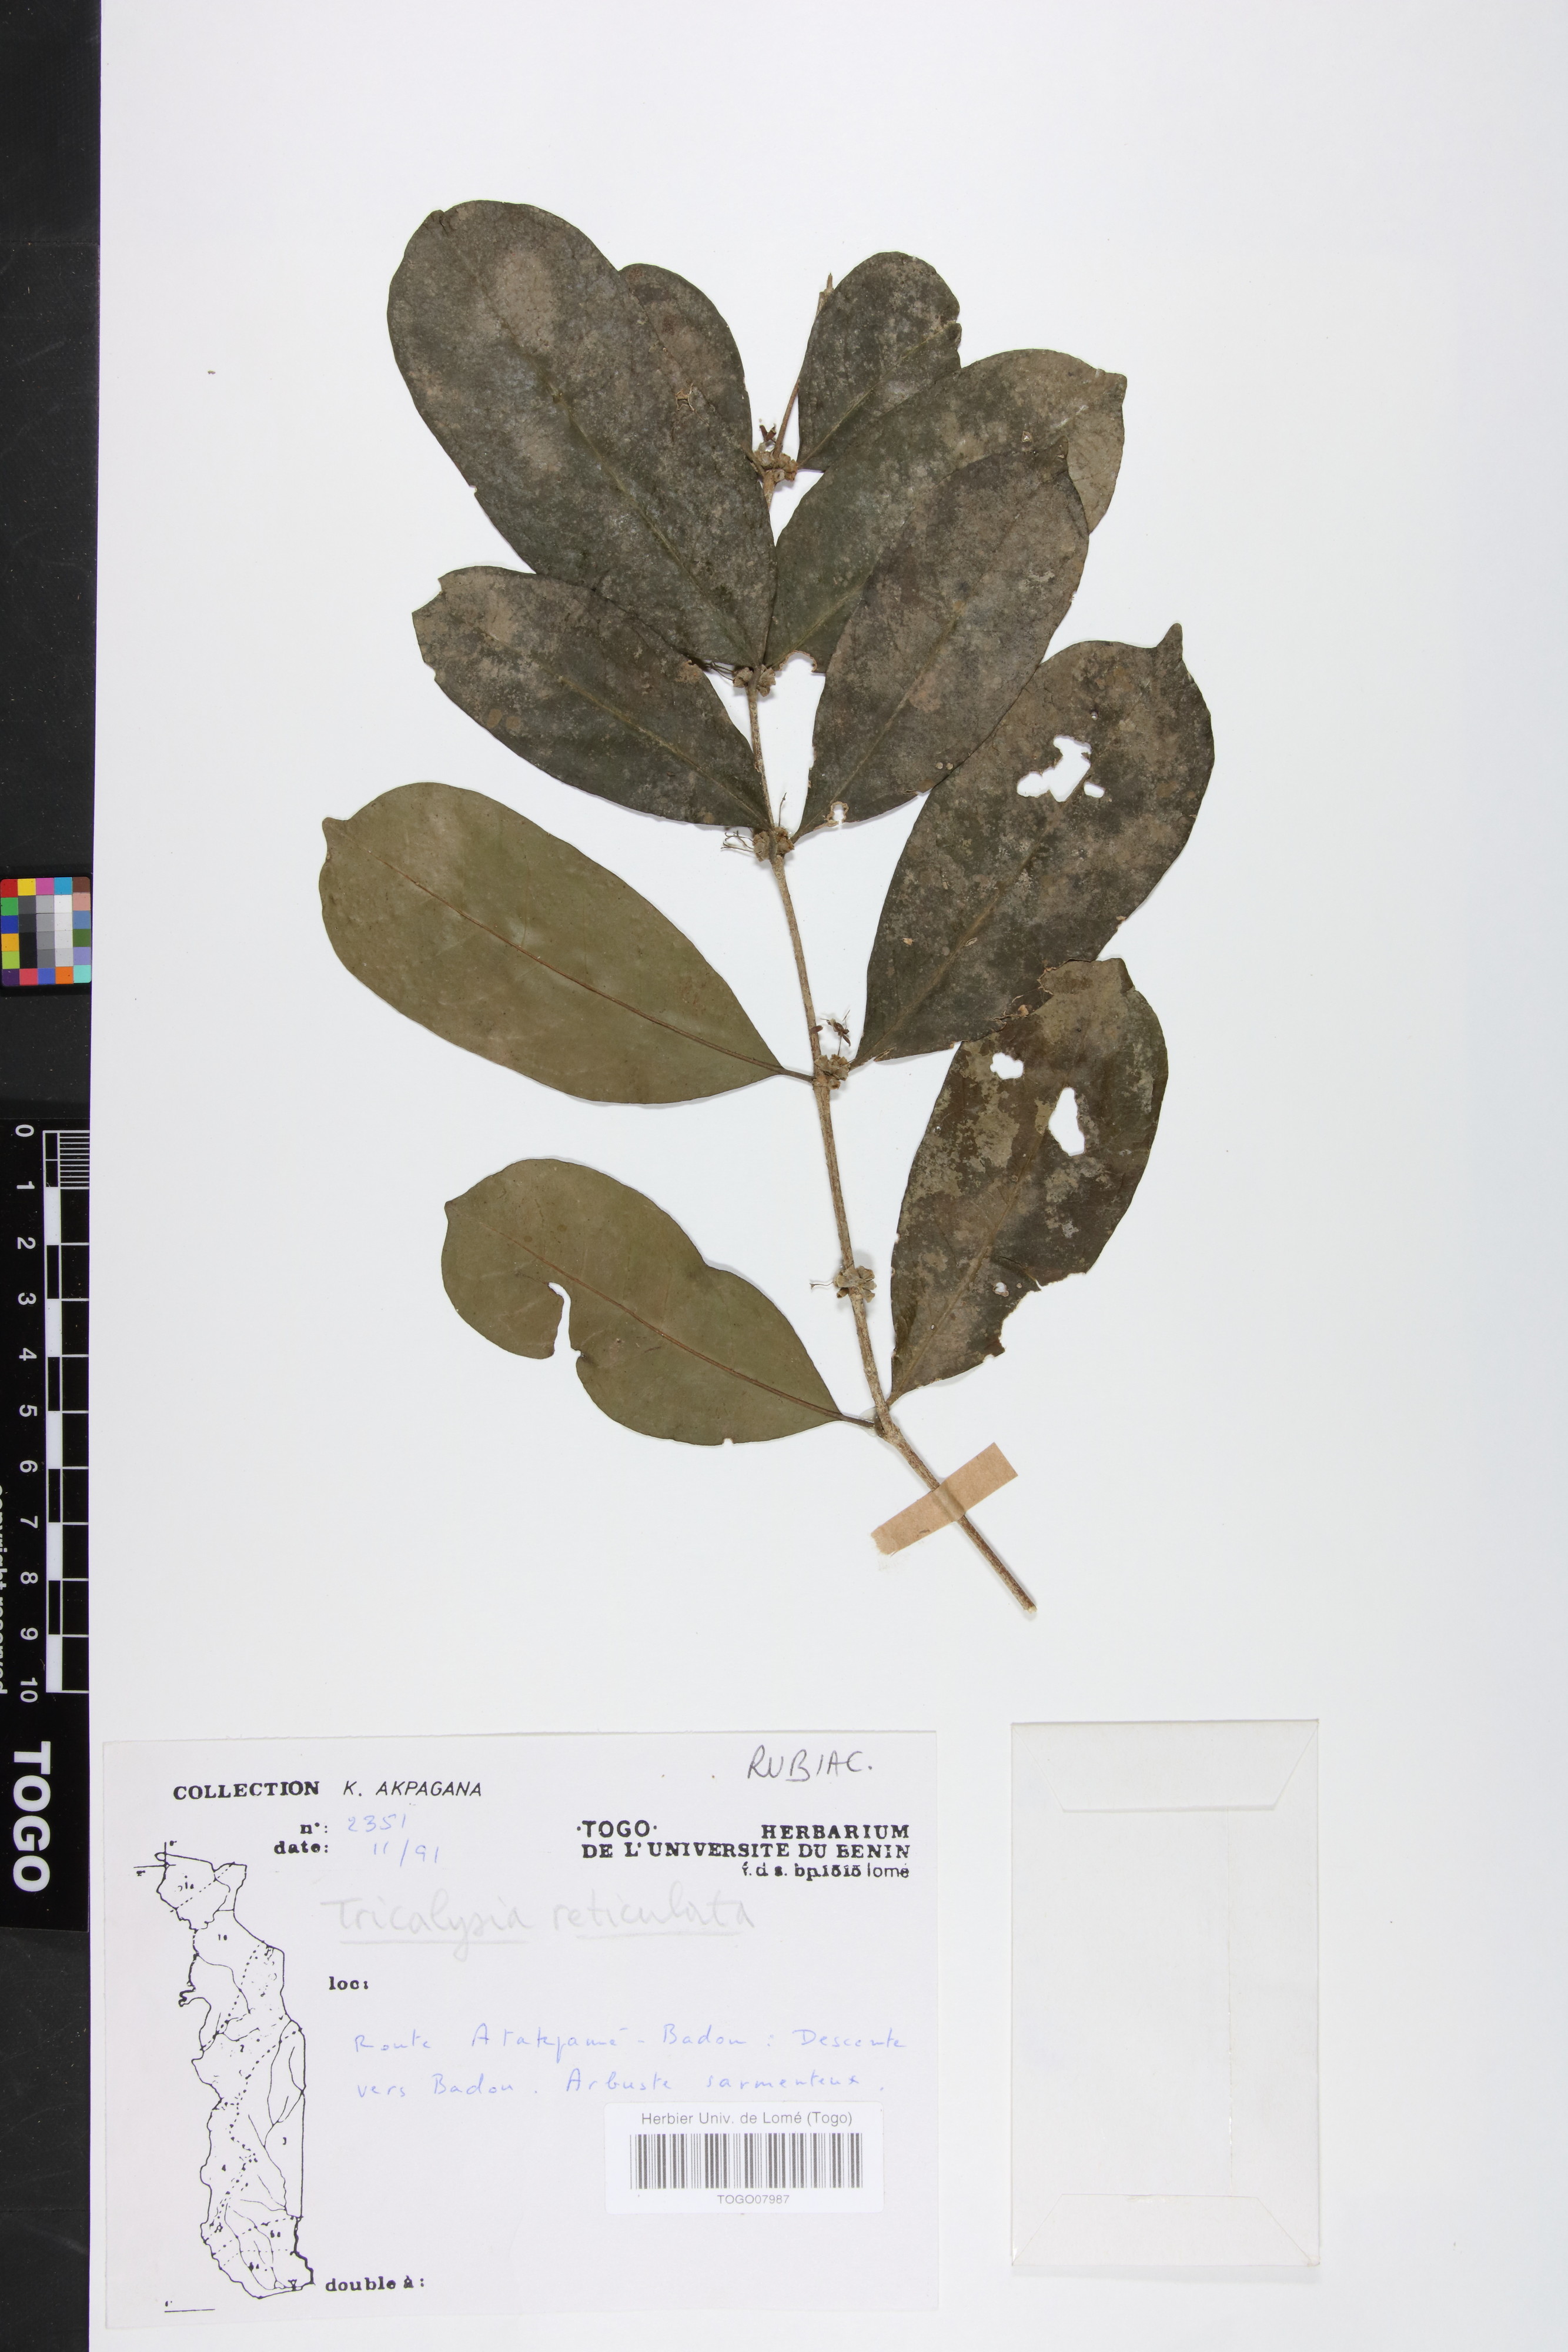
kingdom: Plantae
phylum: Tracheophyta
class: Magnoliopsida
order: Gentianales
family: Rubiaceae
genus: Tricalysia
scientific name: Tricalysia reticulata
